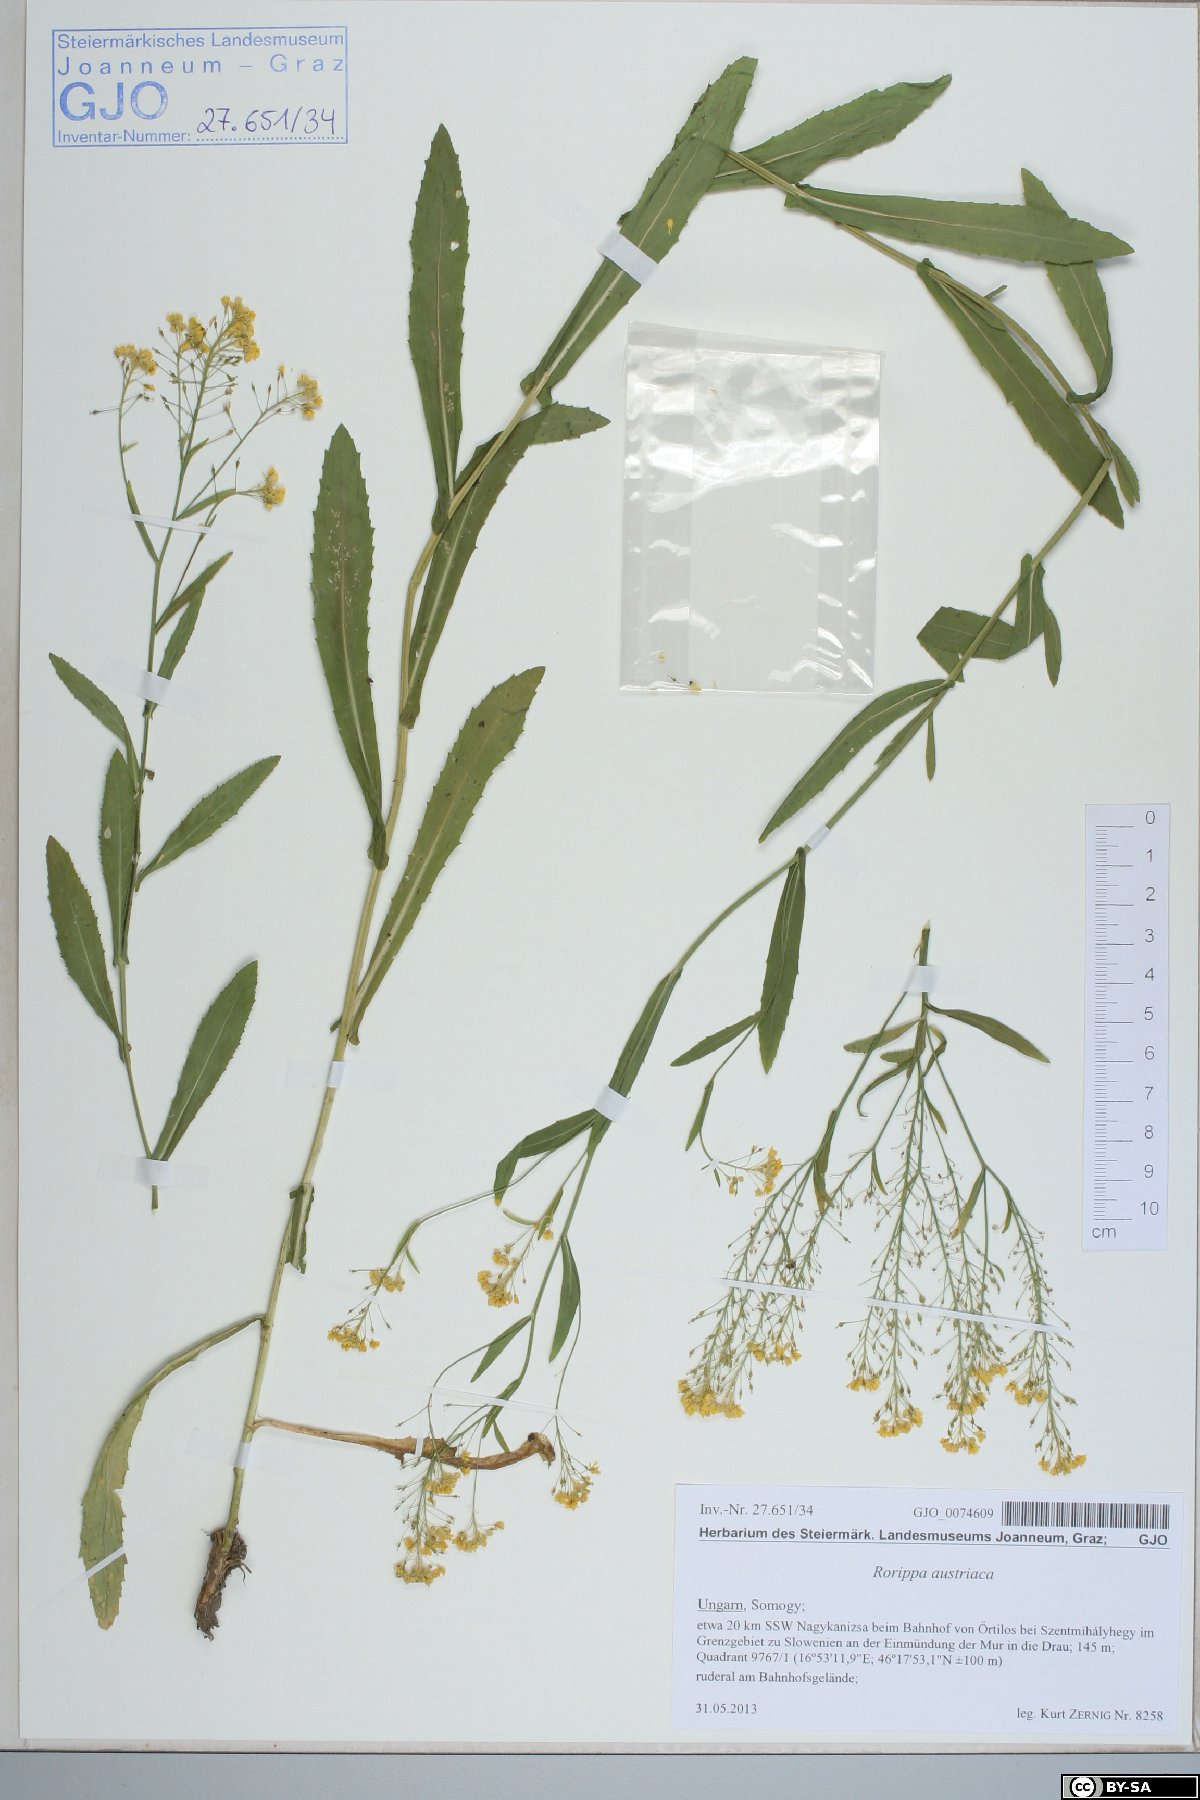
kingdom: Plantae
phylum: Tracheophyta
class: Magnoliopsida
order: Brassicales
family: Brassicaceae
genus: Rorippa
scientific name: Rorippa austriaca
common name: Austrian yellow-cress
